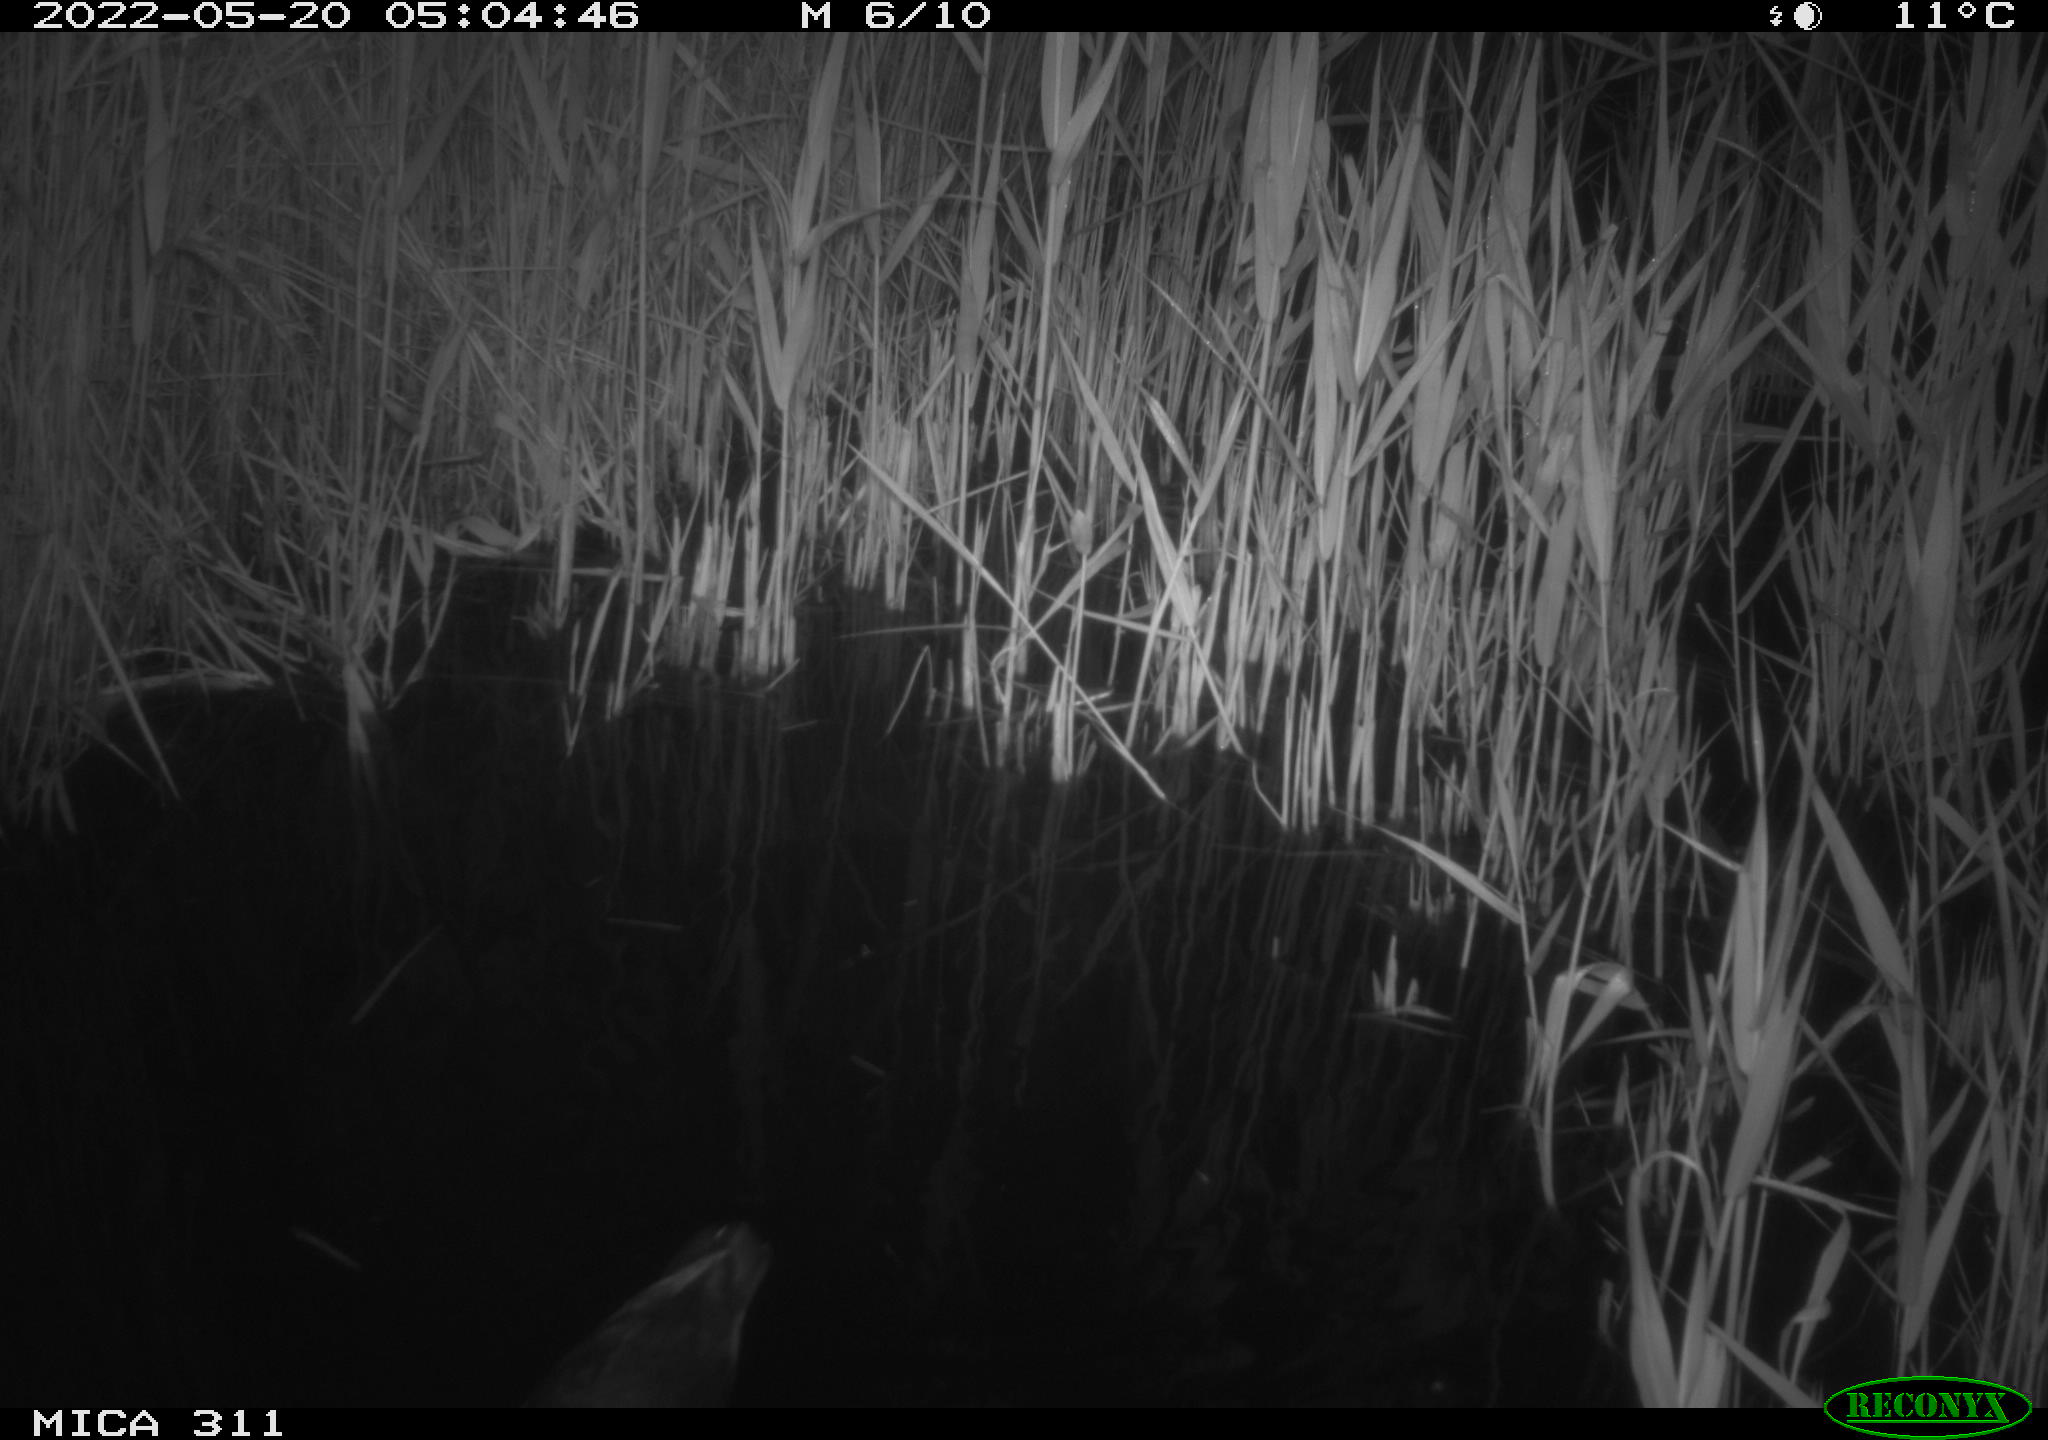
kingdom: Animalia
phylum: Chordata
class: Aves
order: Gruiformes
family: Rallidae
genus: Gallinula
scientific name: Gallinula chloropus
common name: Common moorhen
